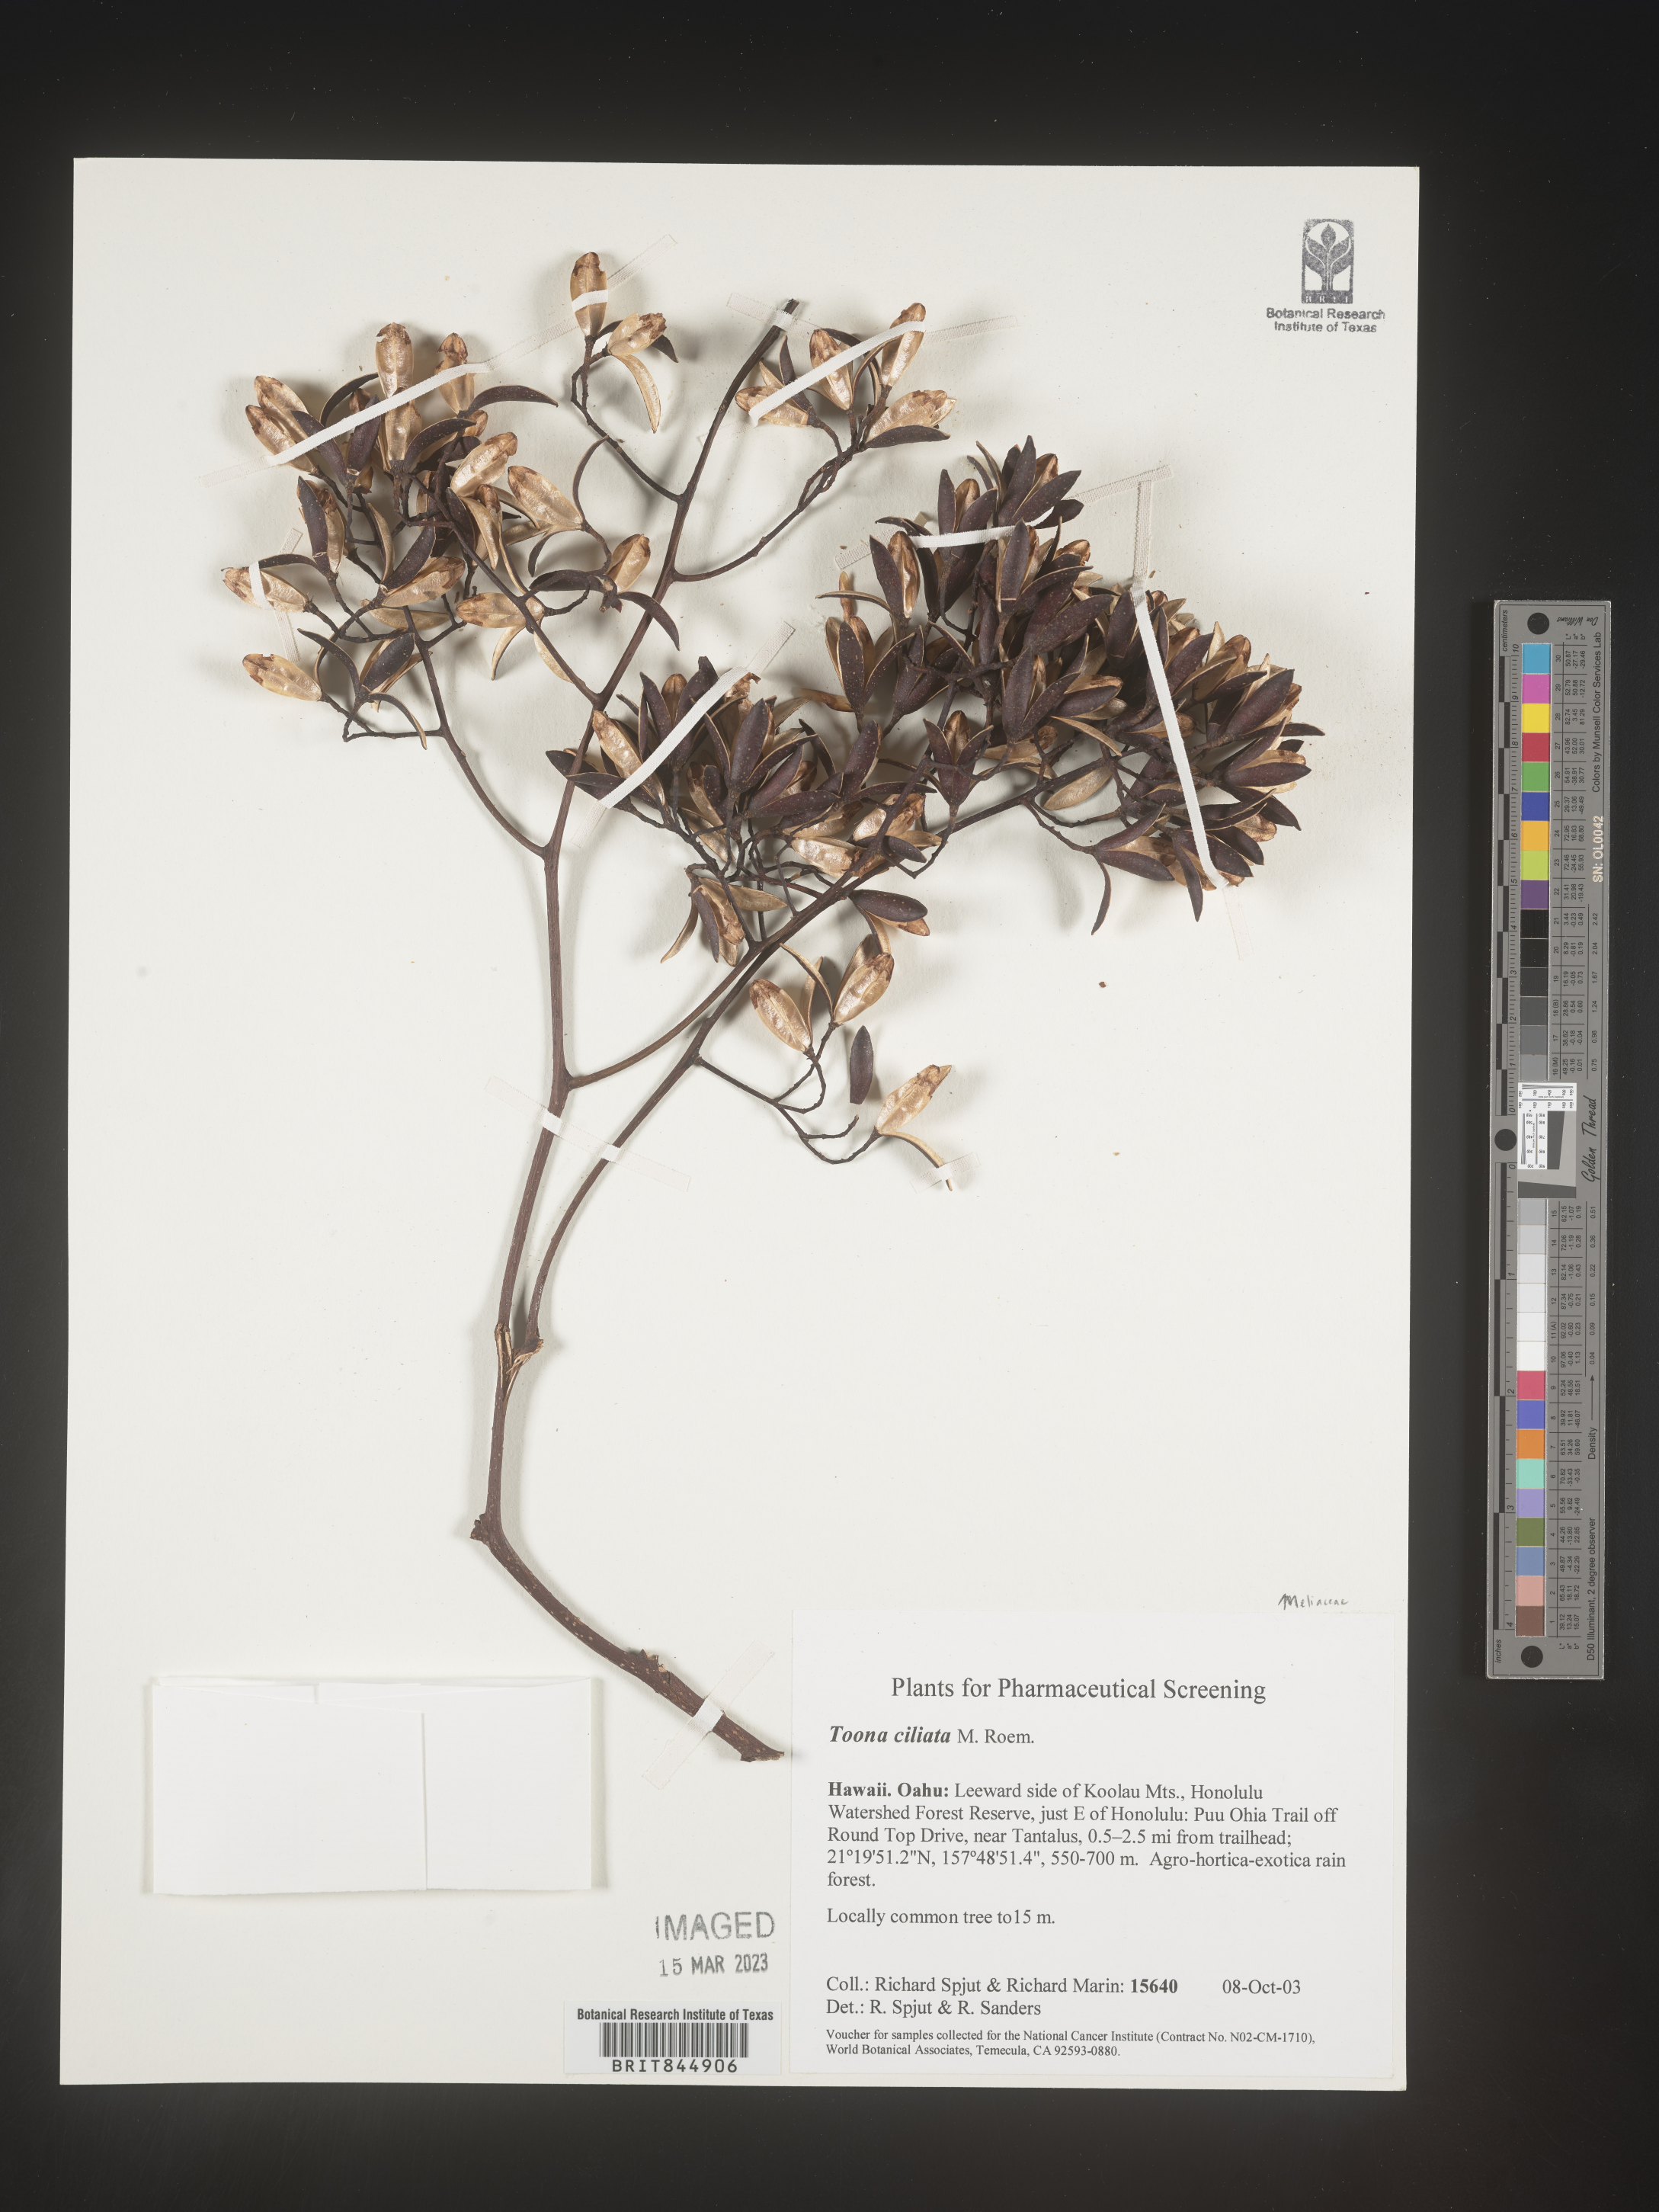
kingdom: Plantae
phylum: Tracheophyta
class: Magnoliopsida
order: Sapindales
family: Meliaceae
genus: Toona
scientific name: Toona ciliata
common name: Australian redcedar
